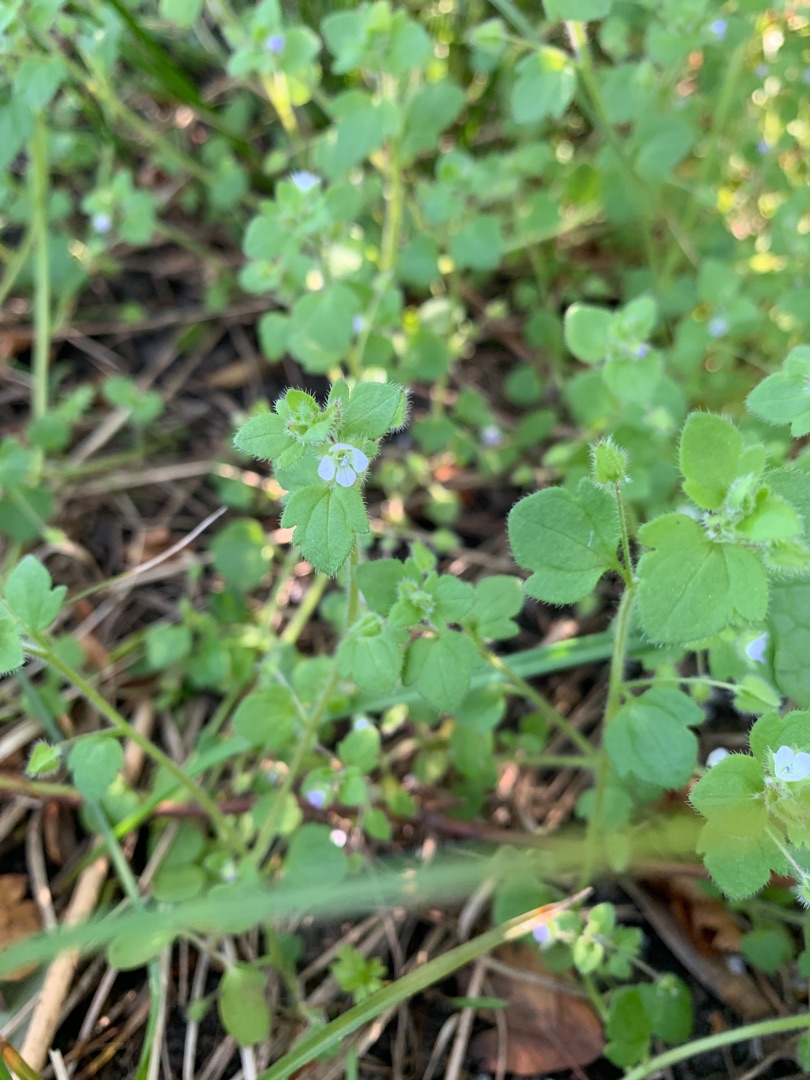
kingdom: Plantae
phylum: Tracheophyta
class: Magnoliopsida
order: Lamiales
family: Plantaginaceae
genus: Veronica
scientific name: Veronica hederifolia
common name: Vedbend-ærenpris
